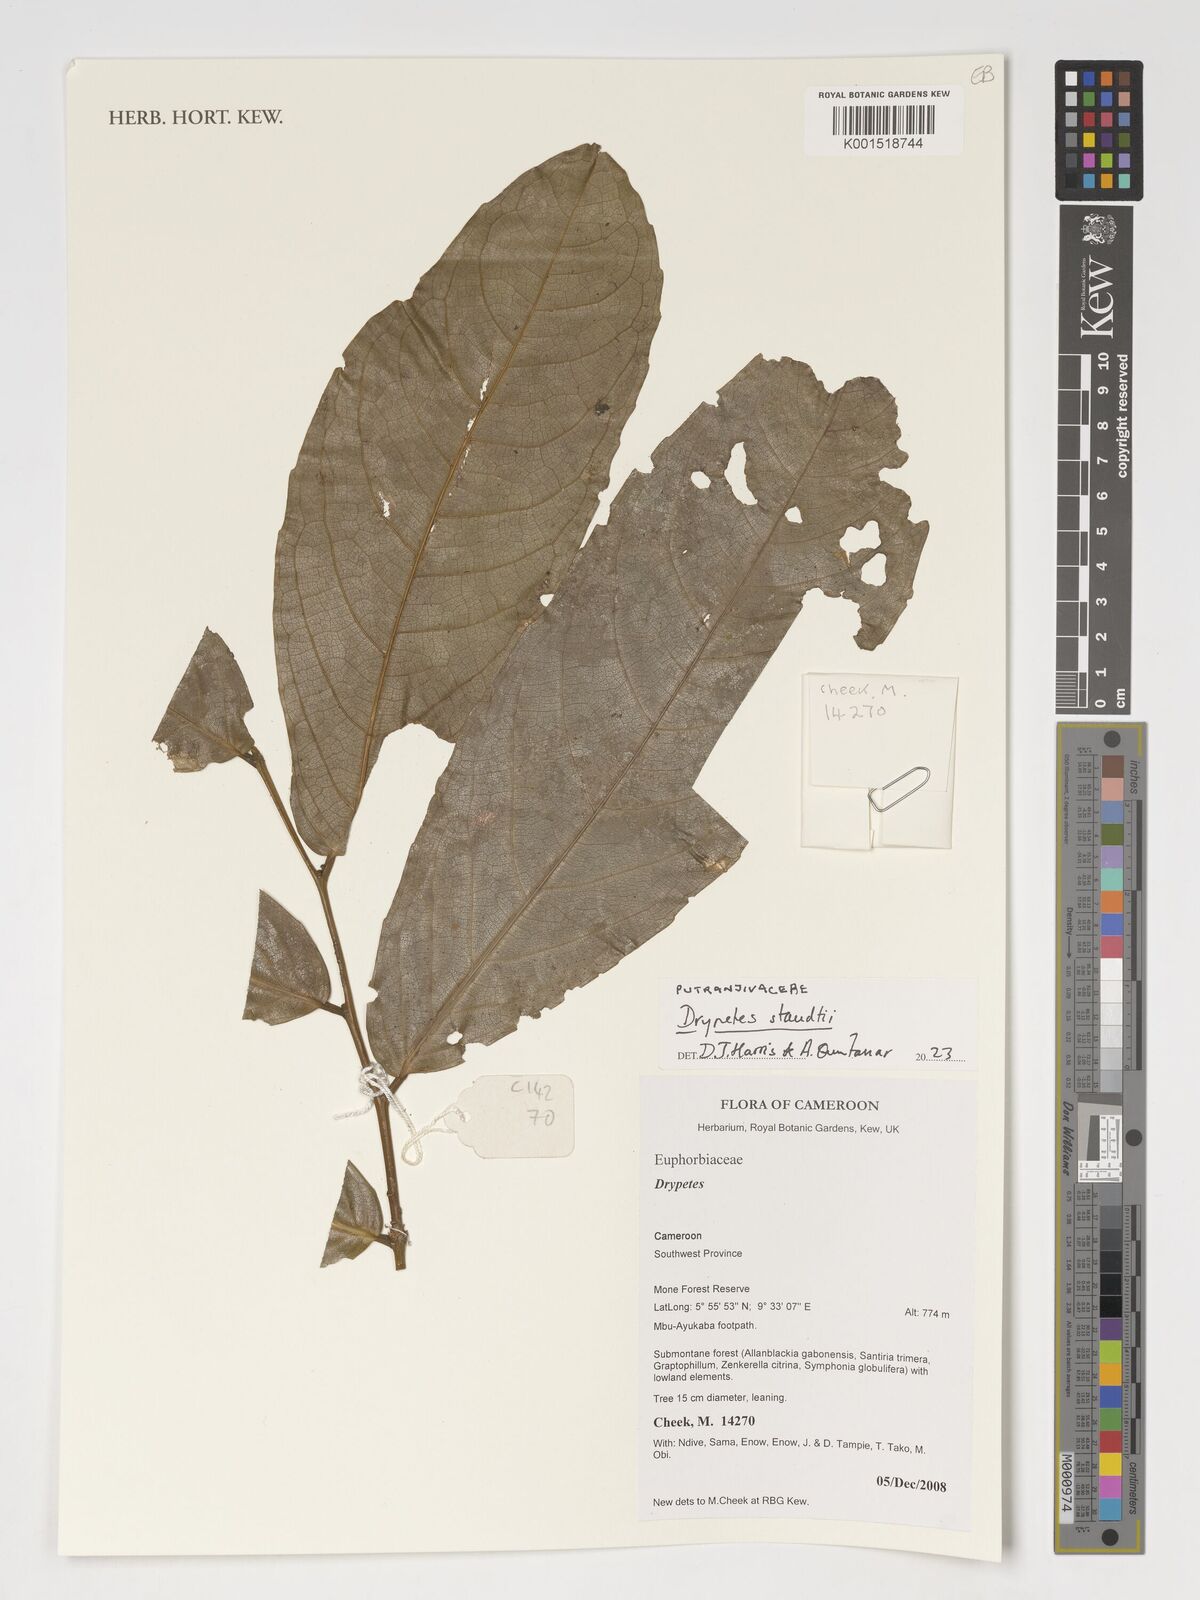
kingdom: Plantae
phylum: Tracheophyta
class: Magnoliopsida
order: Malpighiales
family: Putranjivaceae
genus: Drypetes
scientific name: Drypetes staudtii
